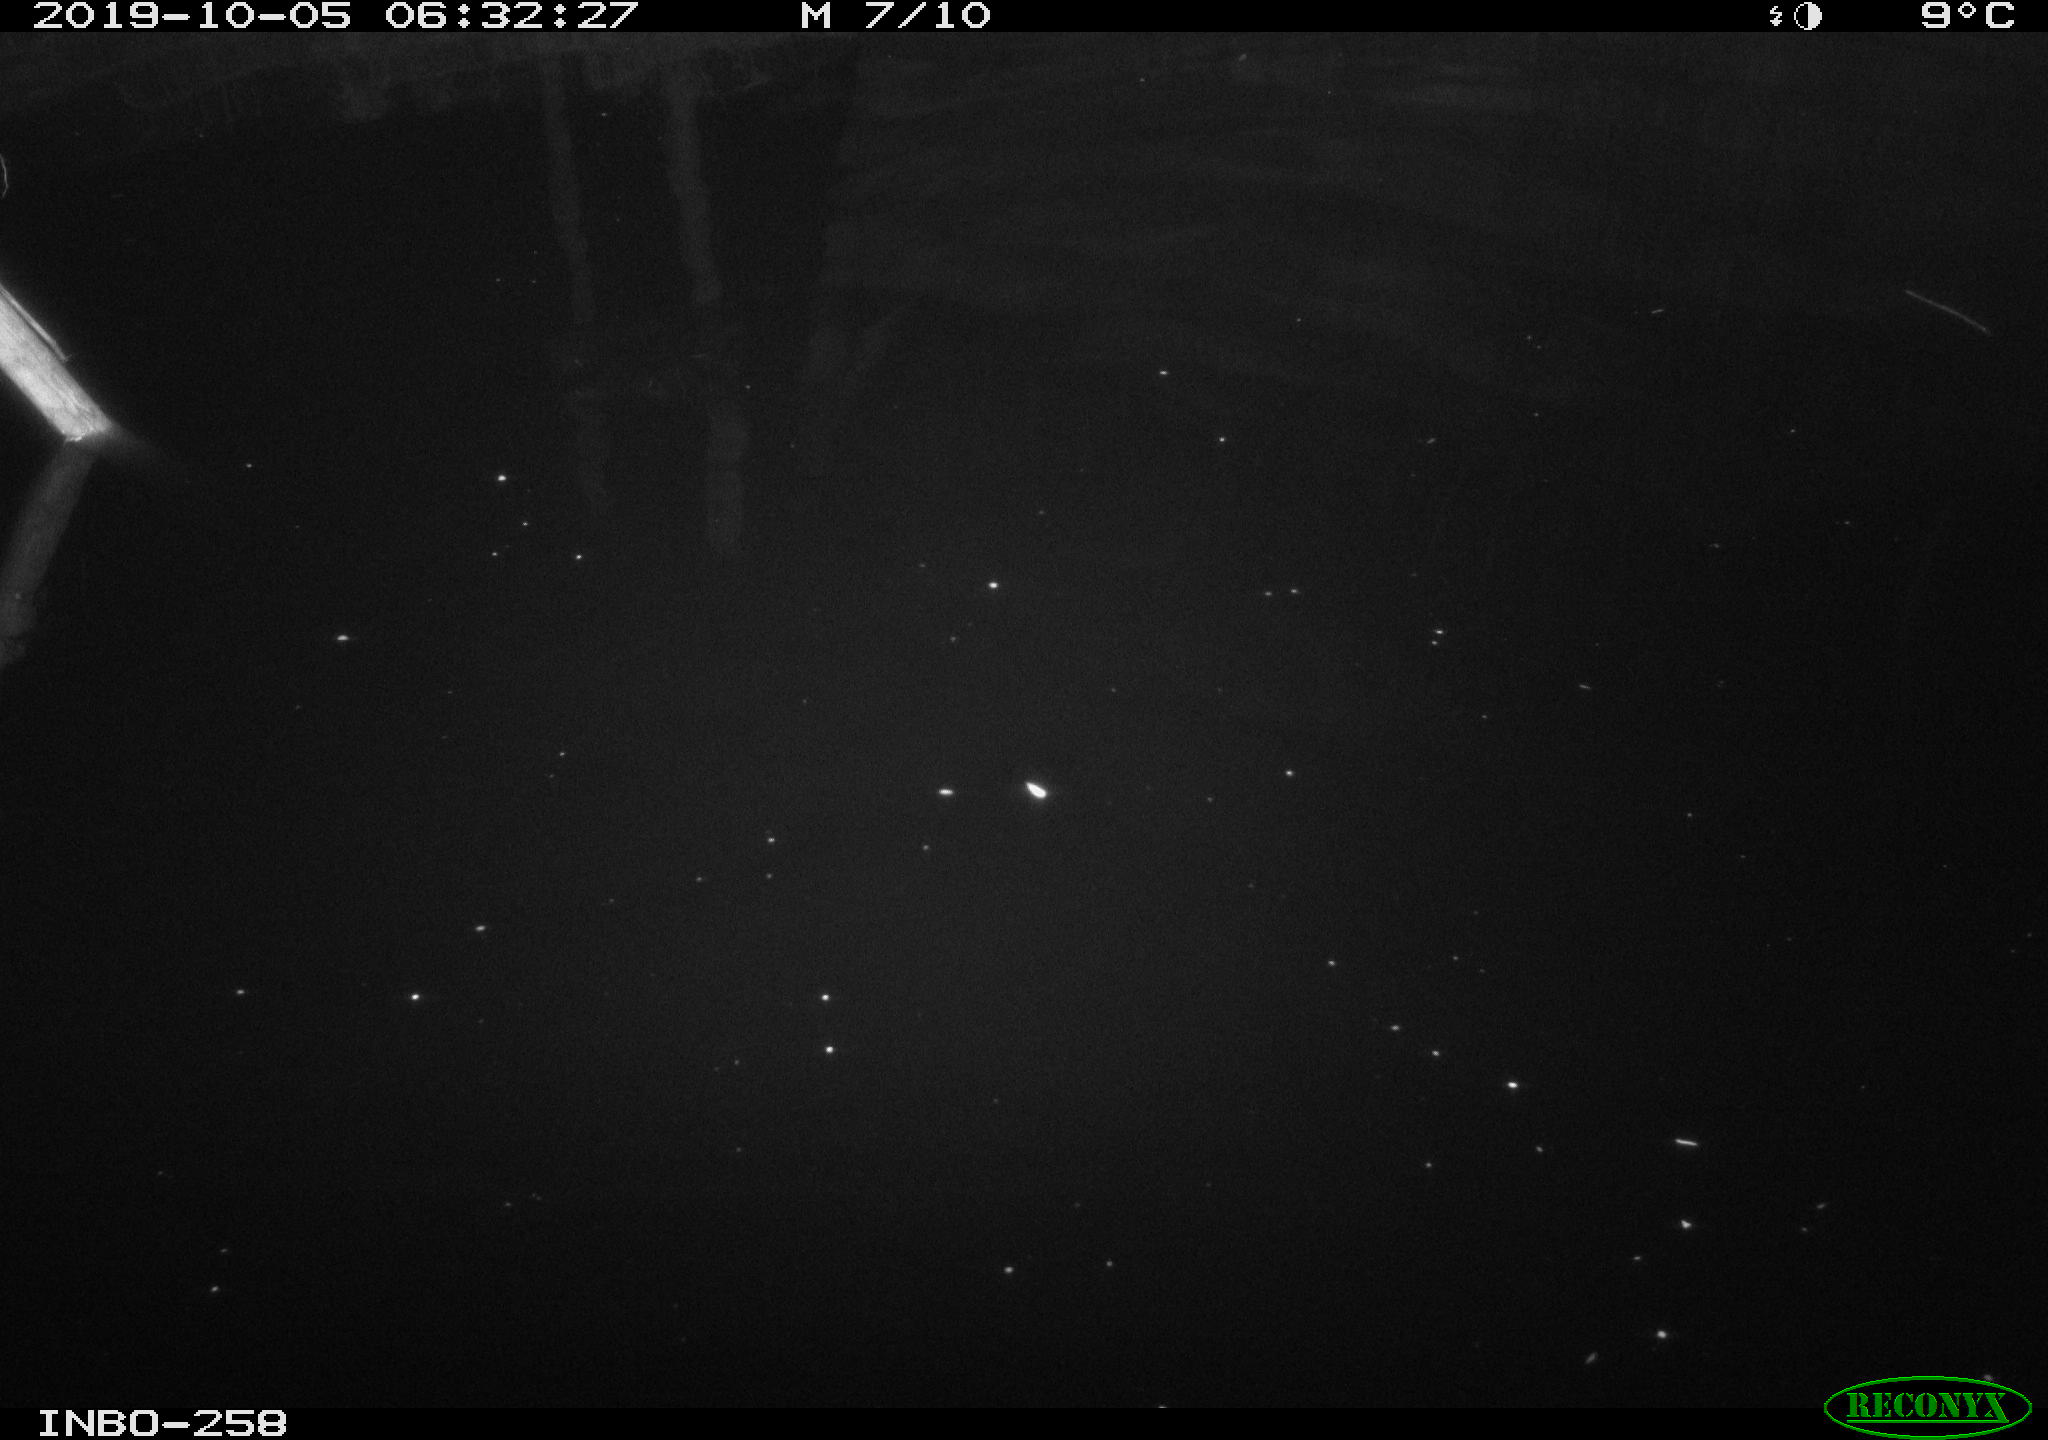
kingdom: Animalia
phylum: Chordata
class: Aves
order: Anseriformes
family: Anatidae
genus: Anas
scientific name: Anas platyrhynchos
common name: Mallard
